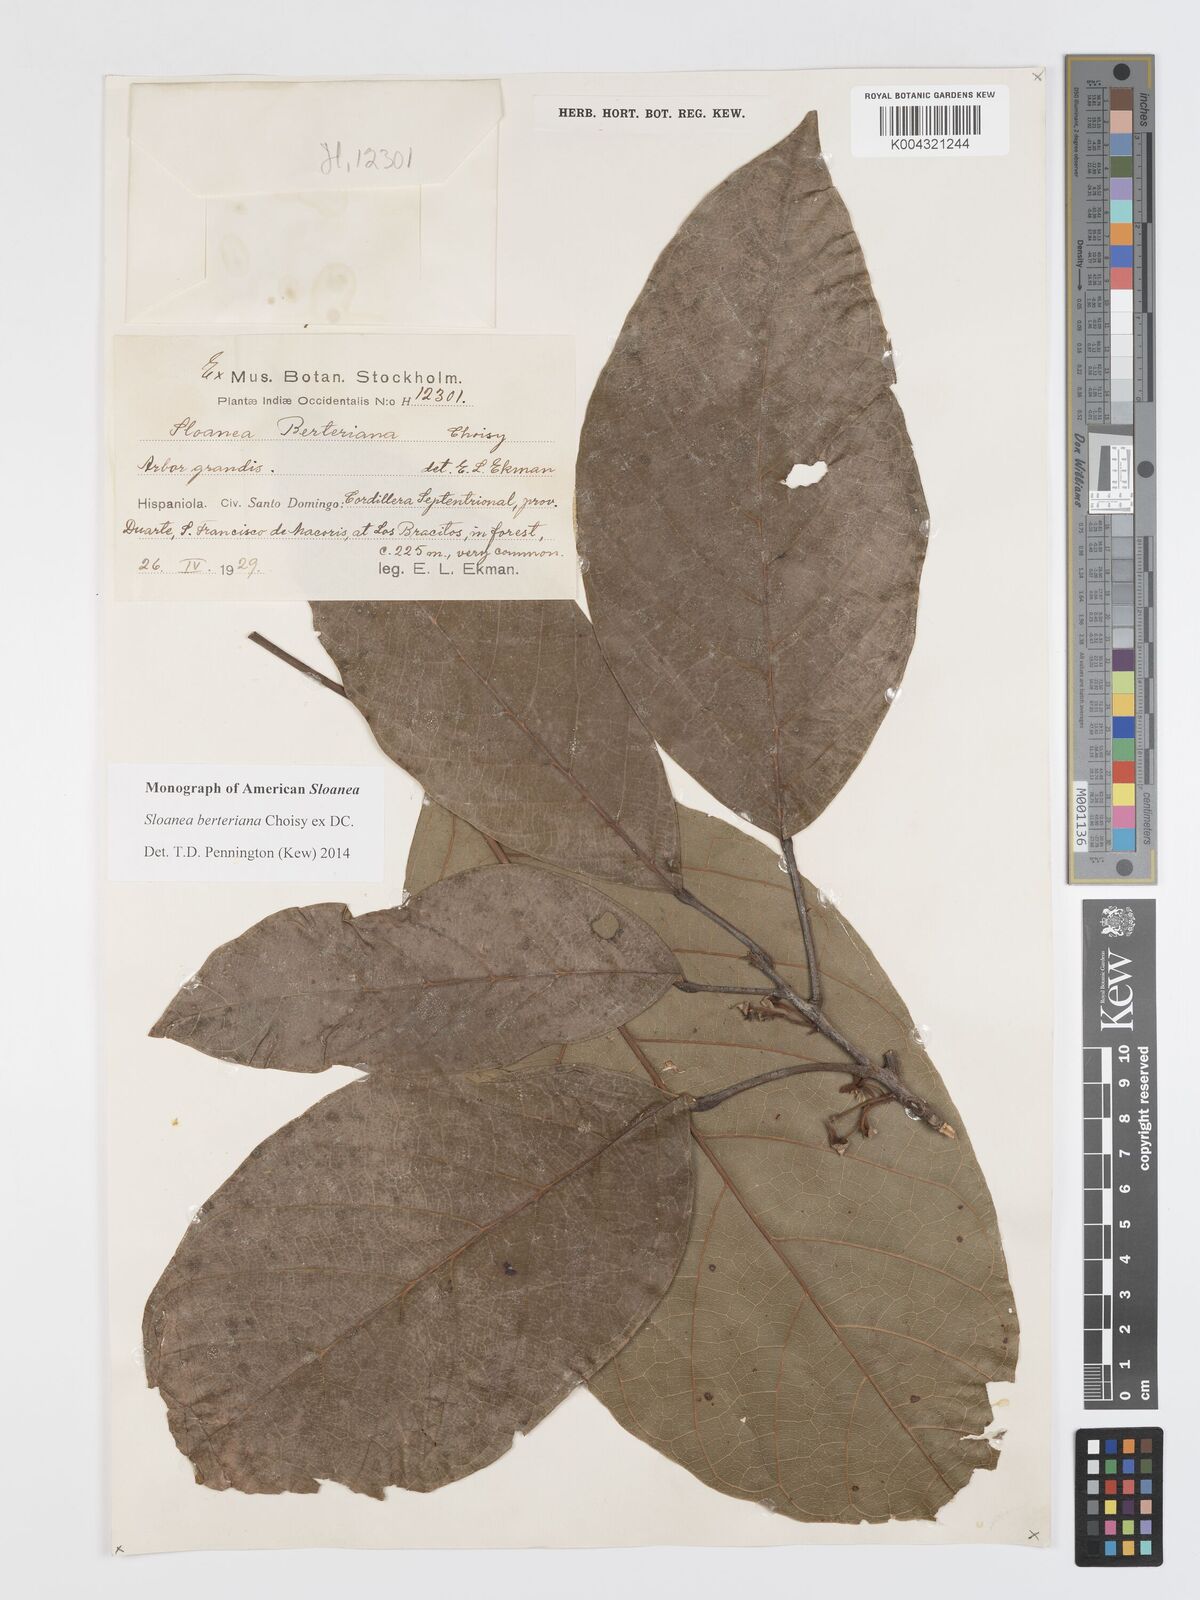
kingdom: Plantae
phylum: Tracheophyta
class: Magnoliopsida
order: Oxalidales
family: Elaeocarpaceae
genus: Sloanea
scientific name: Sloanea berteroana
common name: Bullwood
